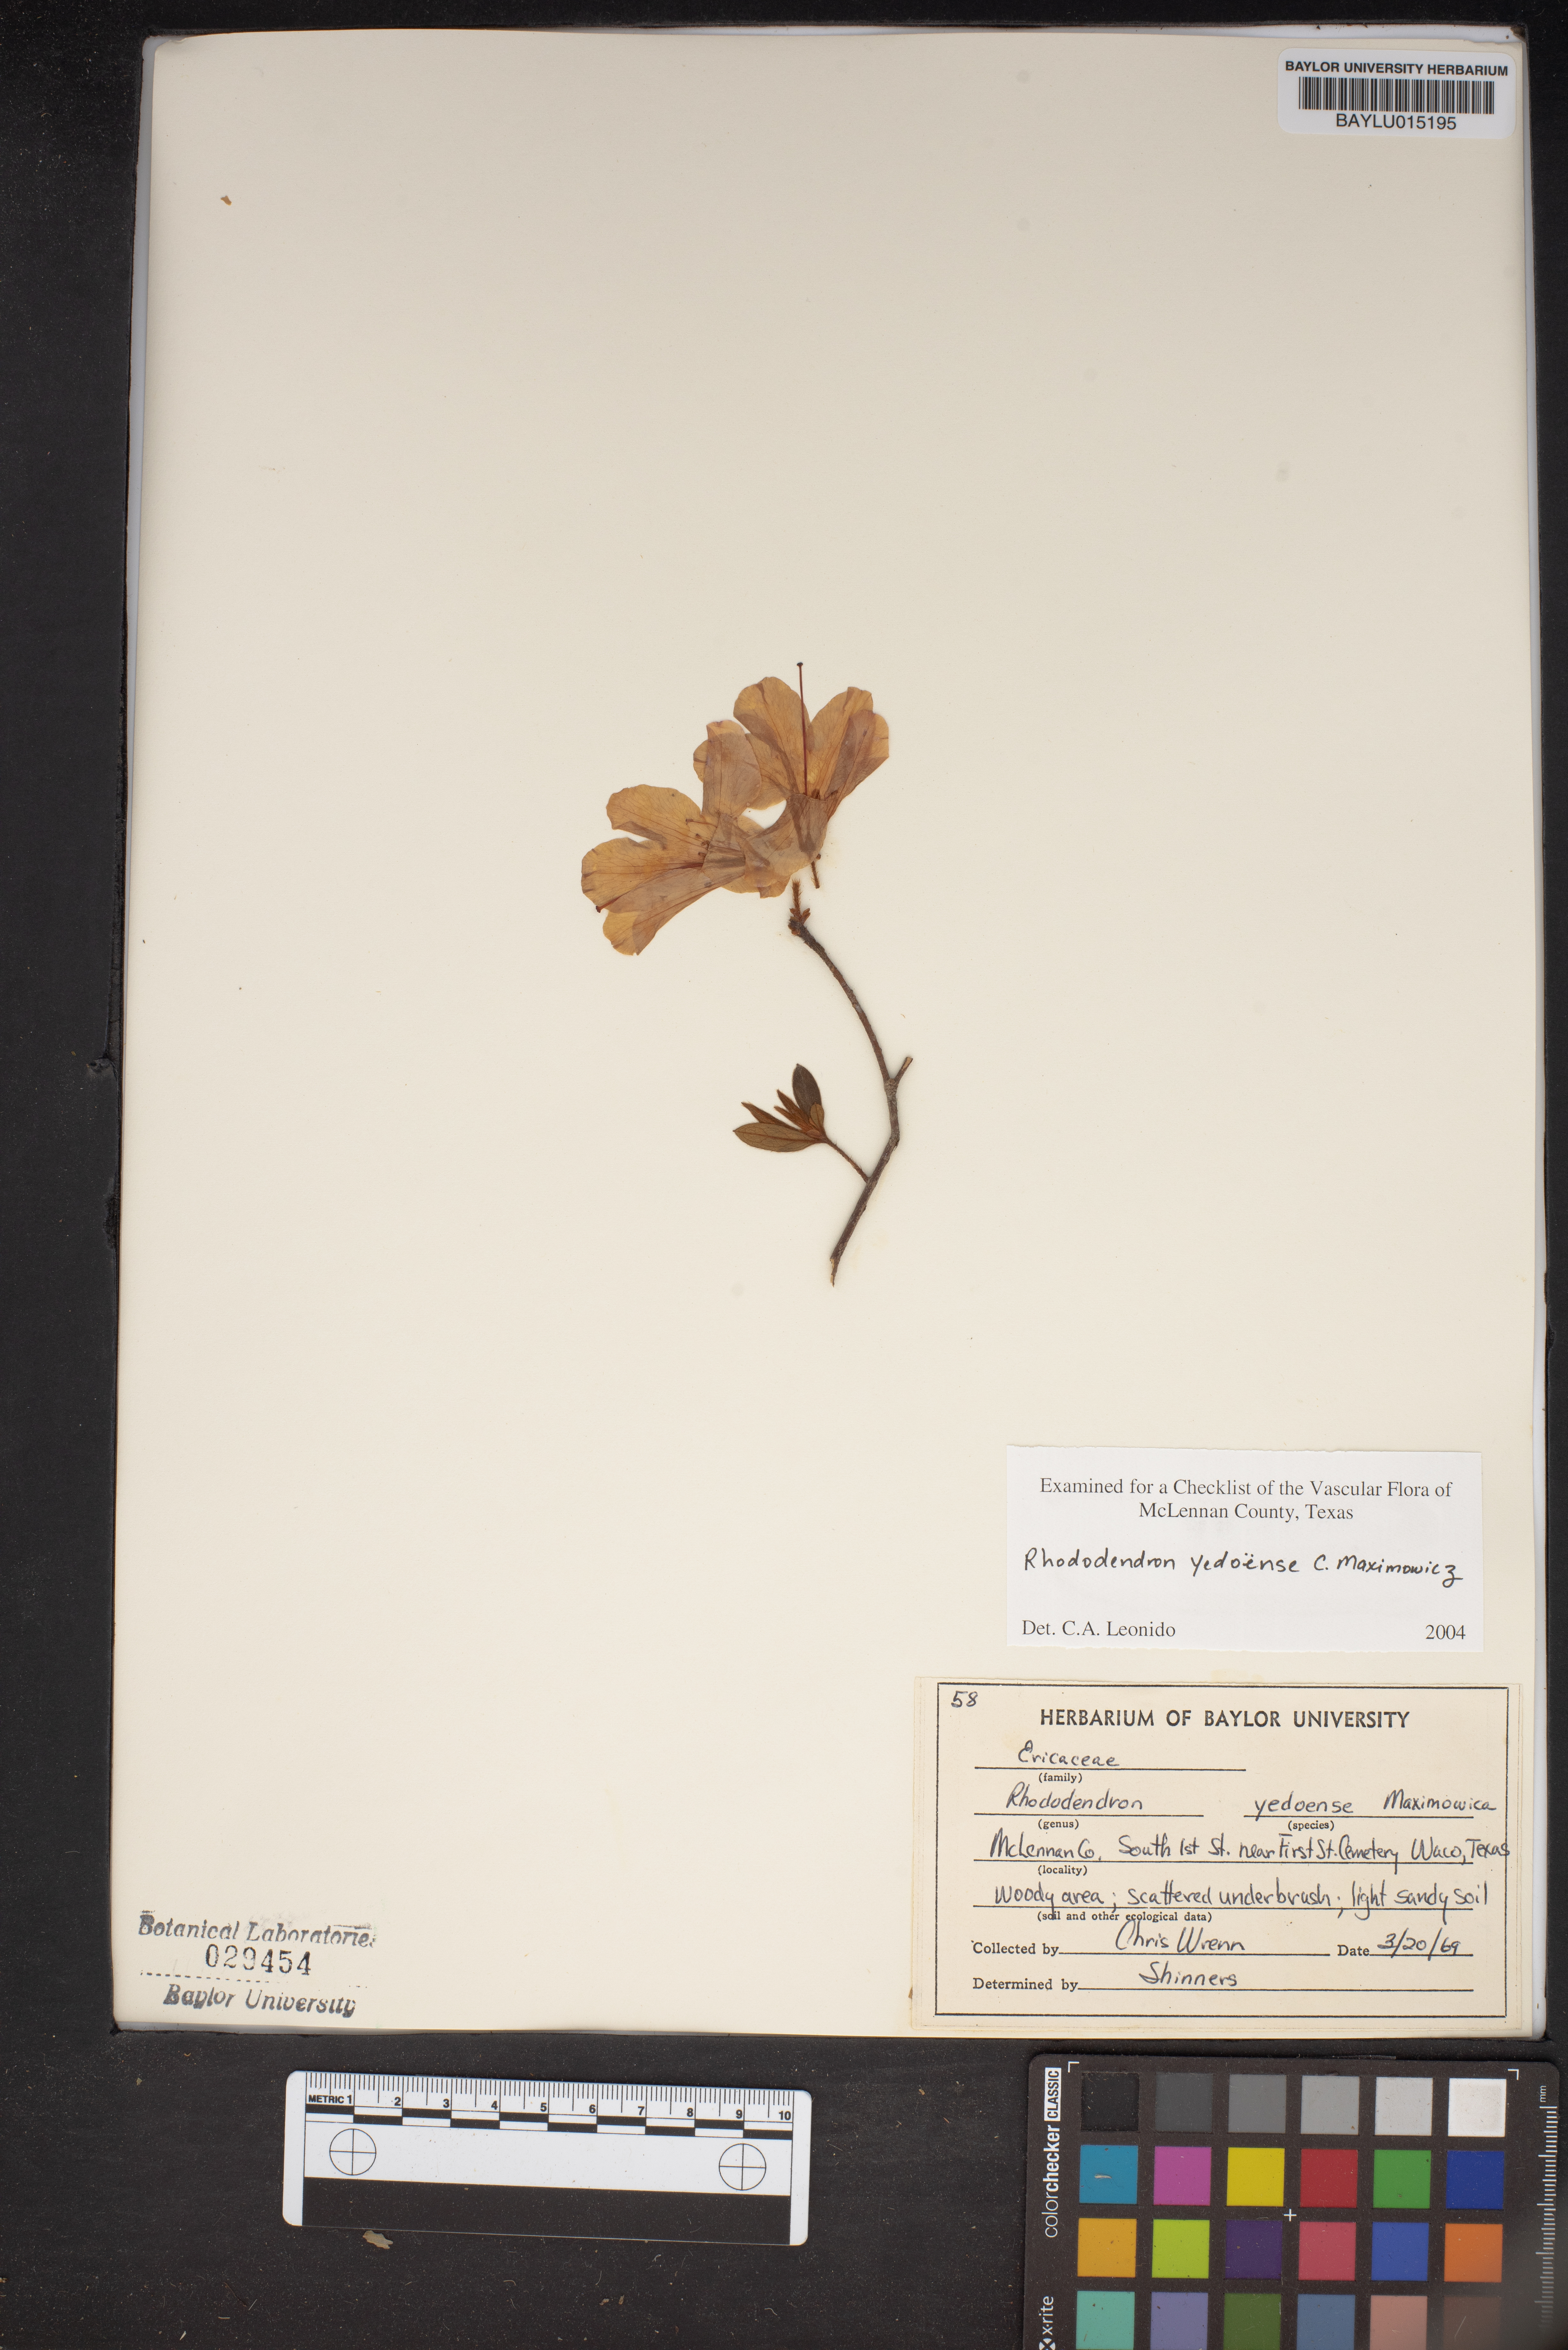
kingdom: Plantae
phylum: Tracheophyta
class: Magnoliopsida
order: Ericales
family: Ericaceae
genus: Rhododendron
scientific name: Rhododendron yedoense
